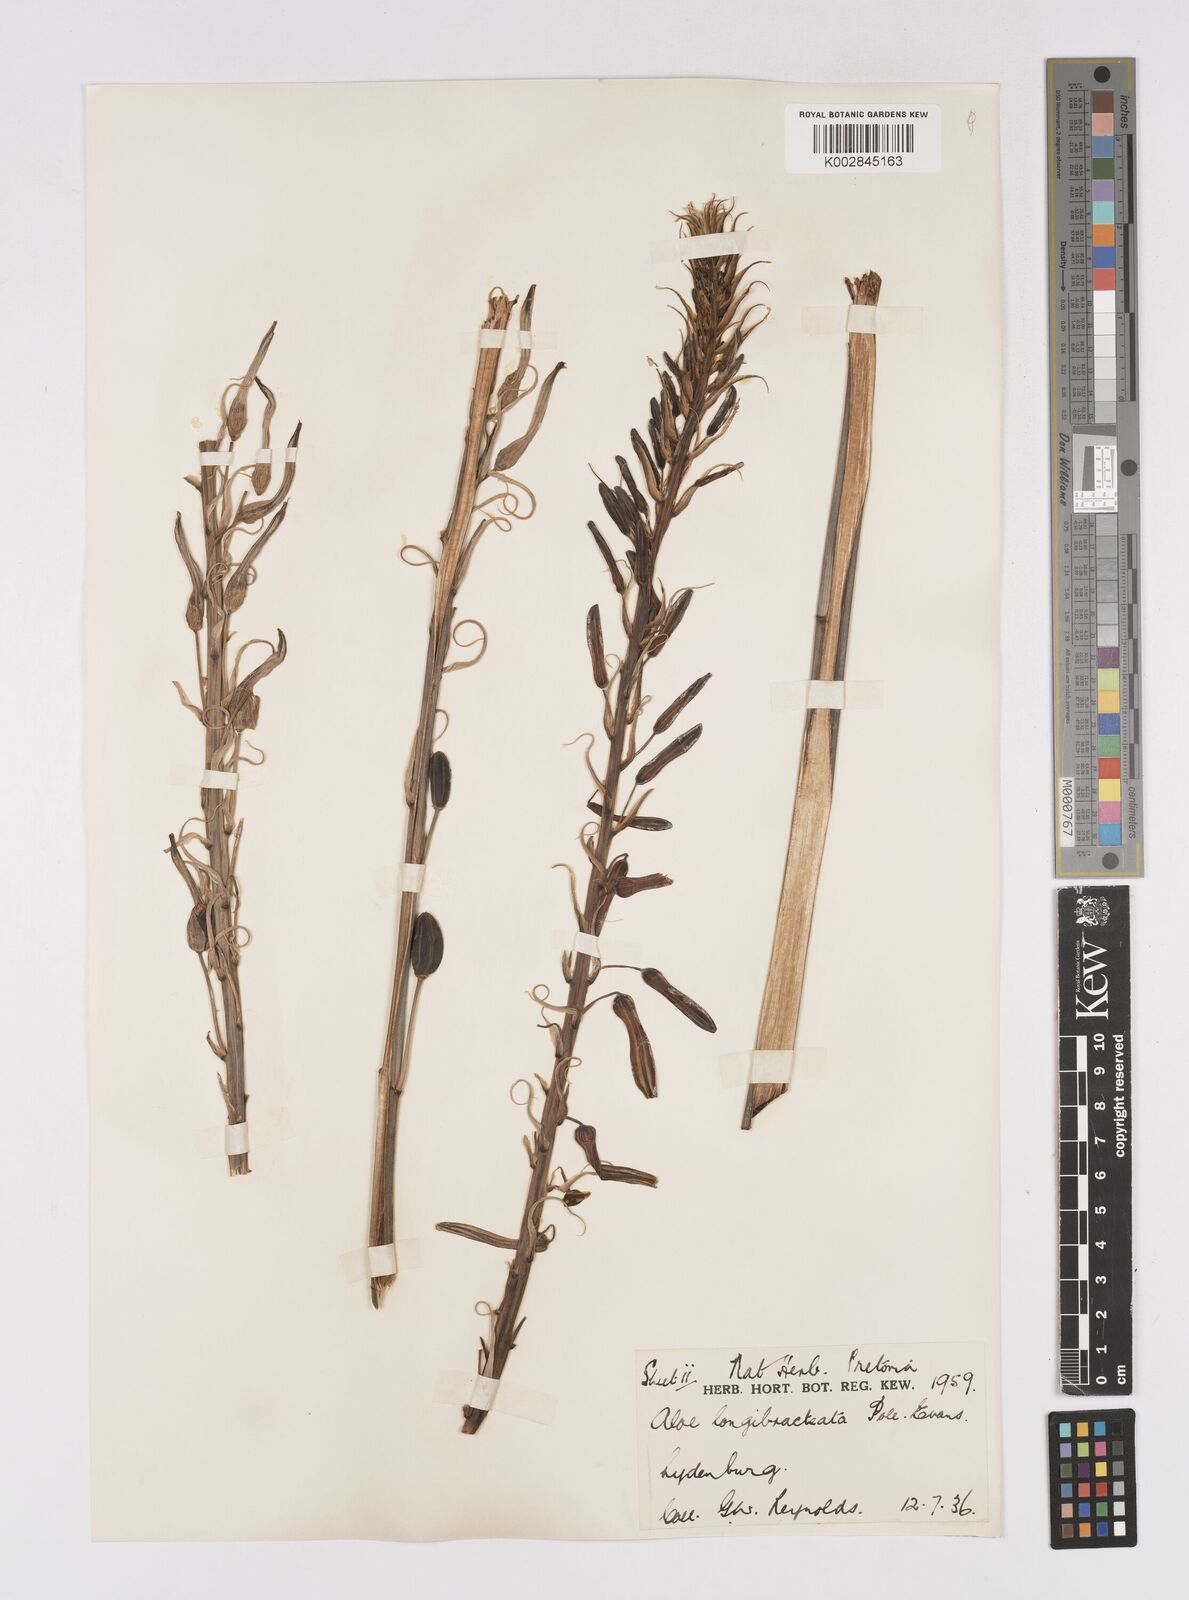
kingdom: Plantae
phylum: Tracheophyta
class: Liliopsida
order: Asparagales
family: Asphodelaceae
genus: Aloe
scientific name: Aloe longibracteata
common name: Limpopo spotted aloe
